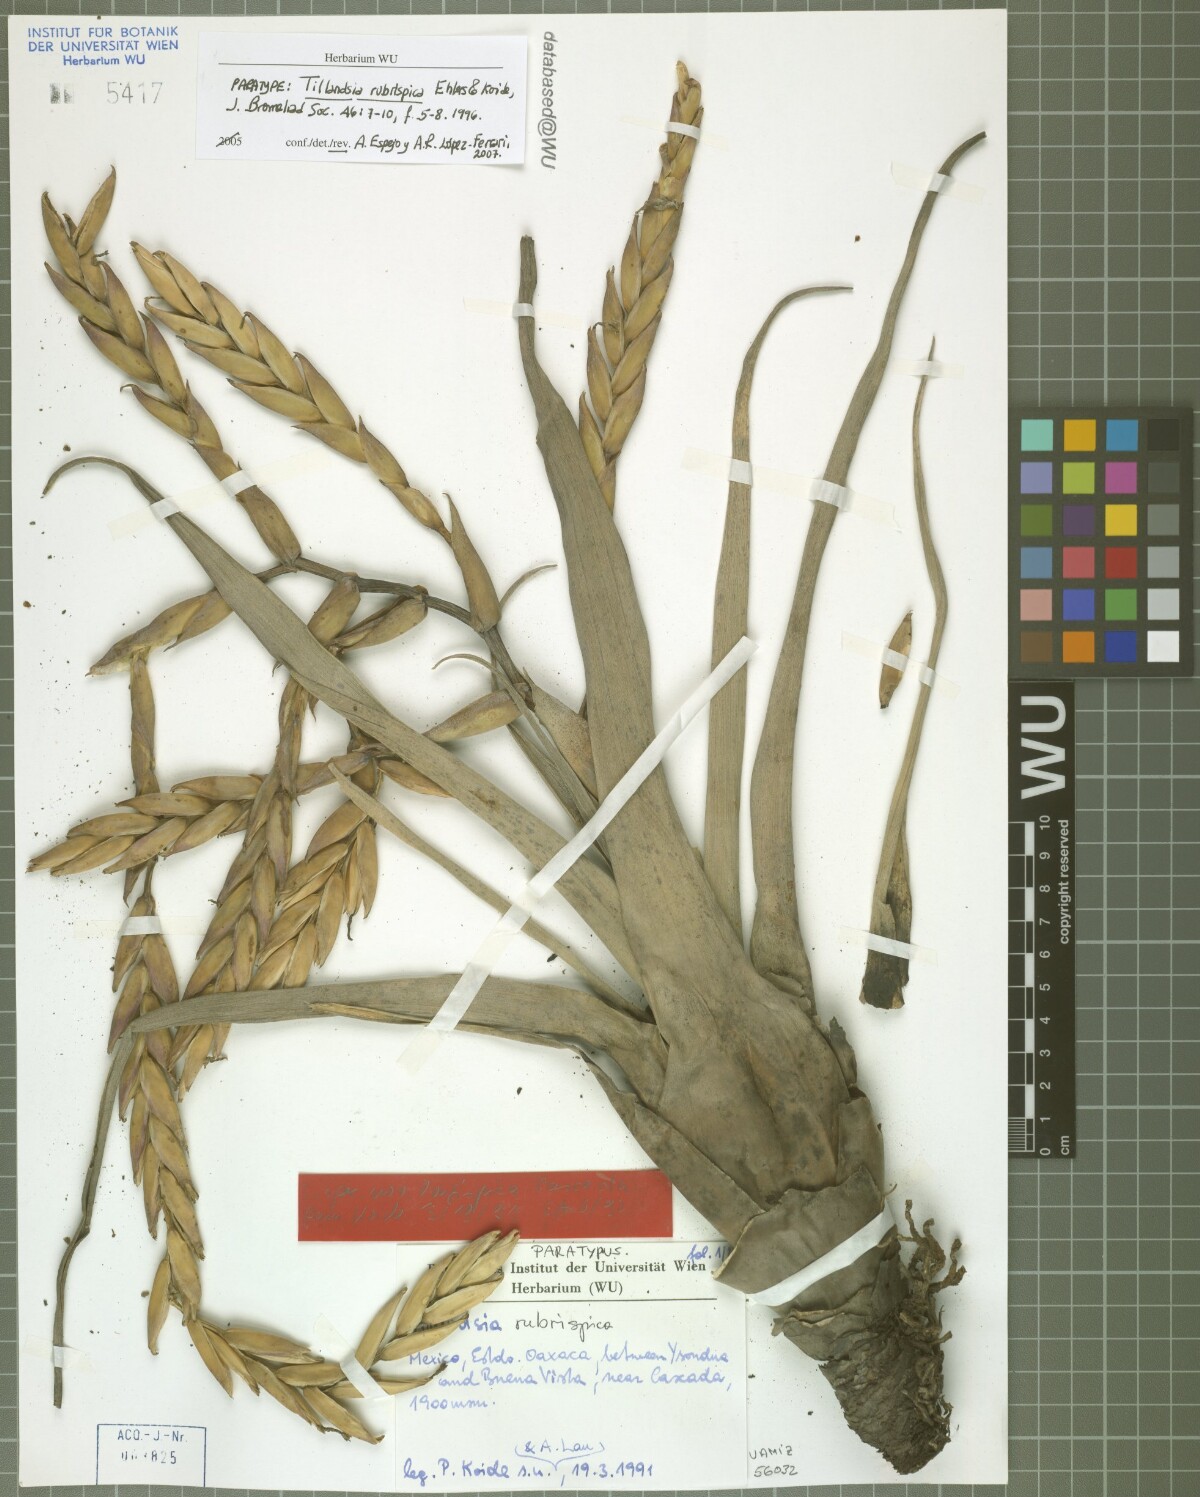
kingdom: Plantae
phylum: Tracheophyta
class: Liliopsida
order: Poales
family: Bromeliaceae
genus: Tillandsia
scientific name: Tillandsia rubrispica
